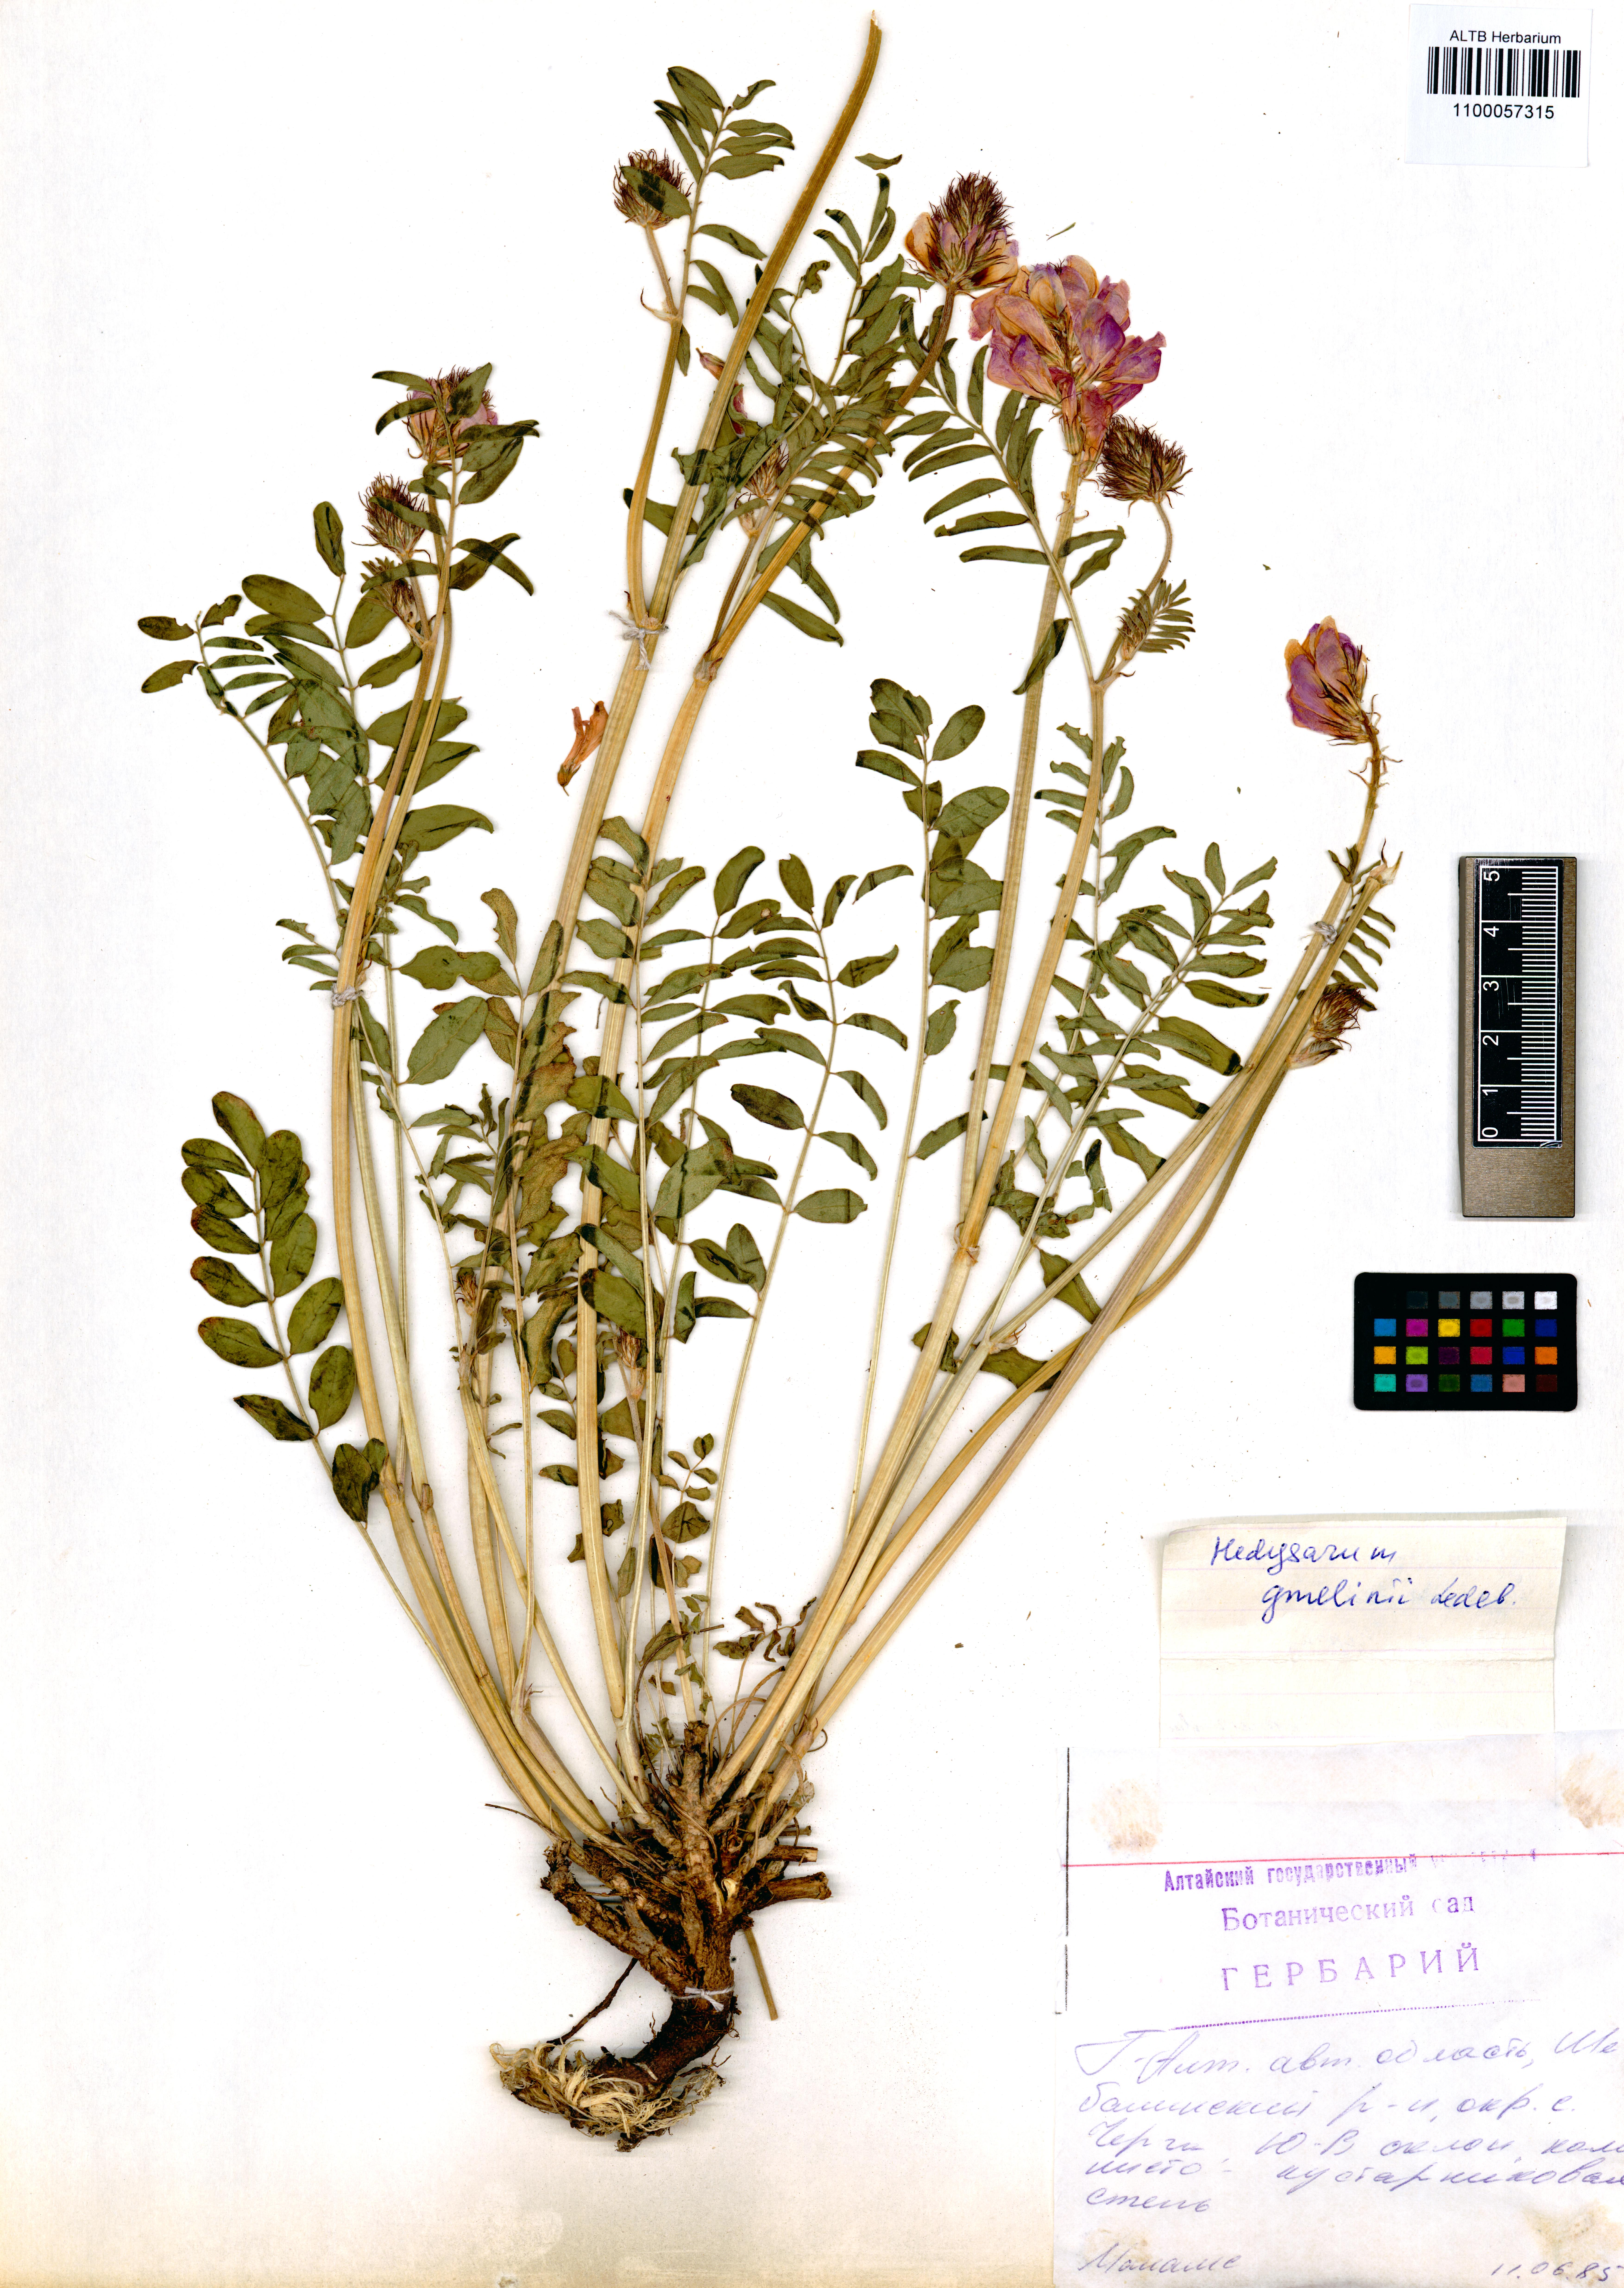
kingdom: Plantae
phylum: Tracheophyta
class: Magnoliopsida
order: Fabales
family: Fabaceae
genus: Hedysarum
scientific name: Hedysarum gmelinii
